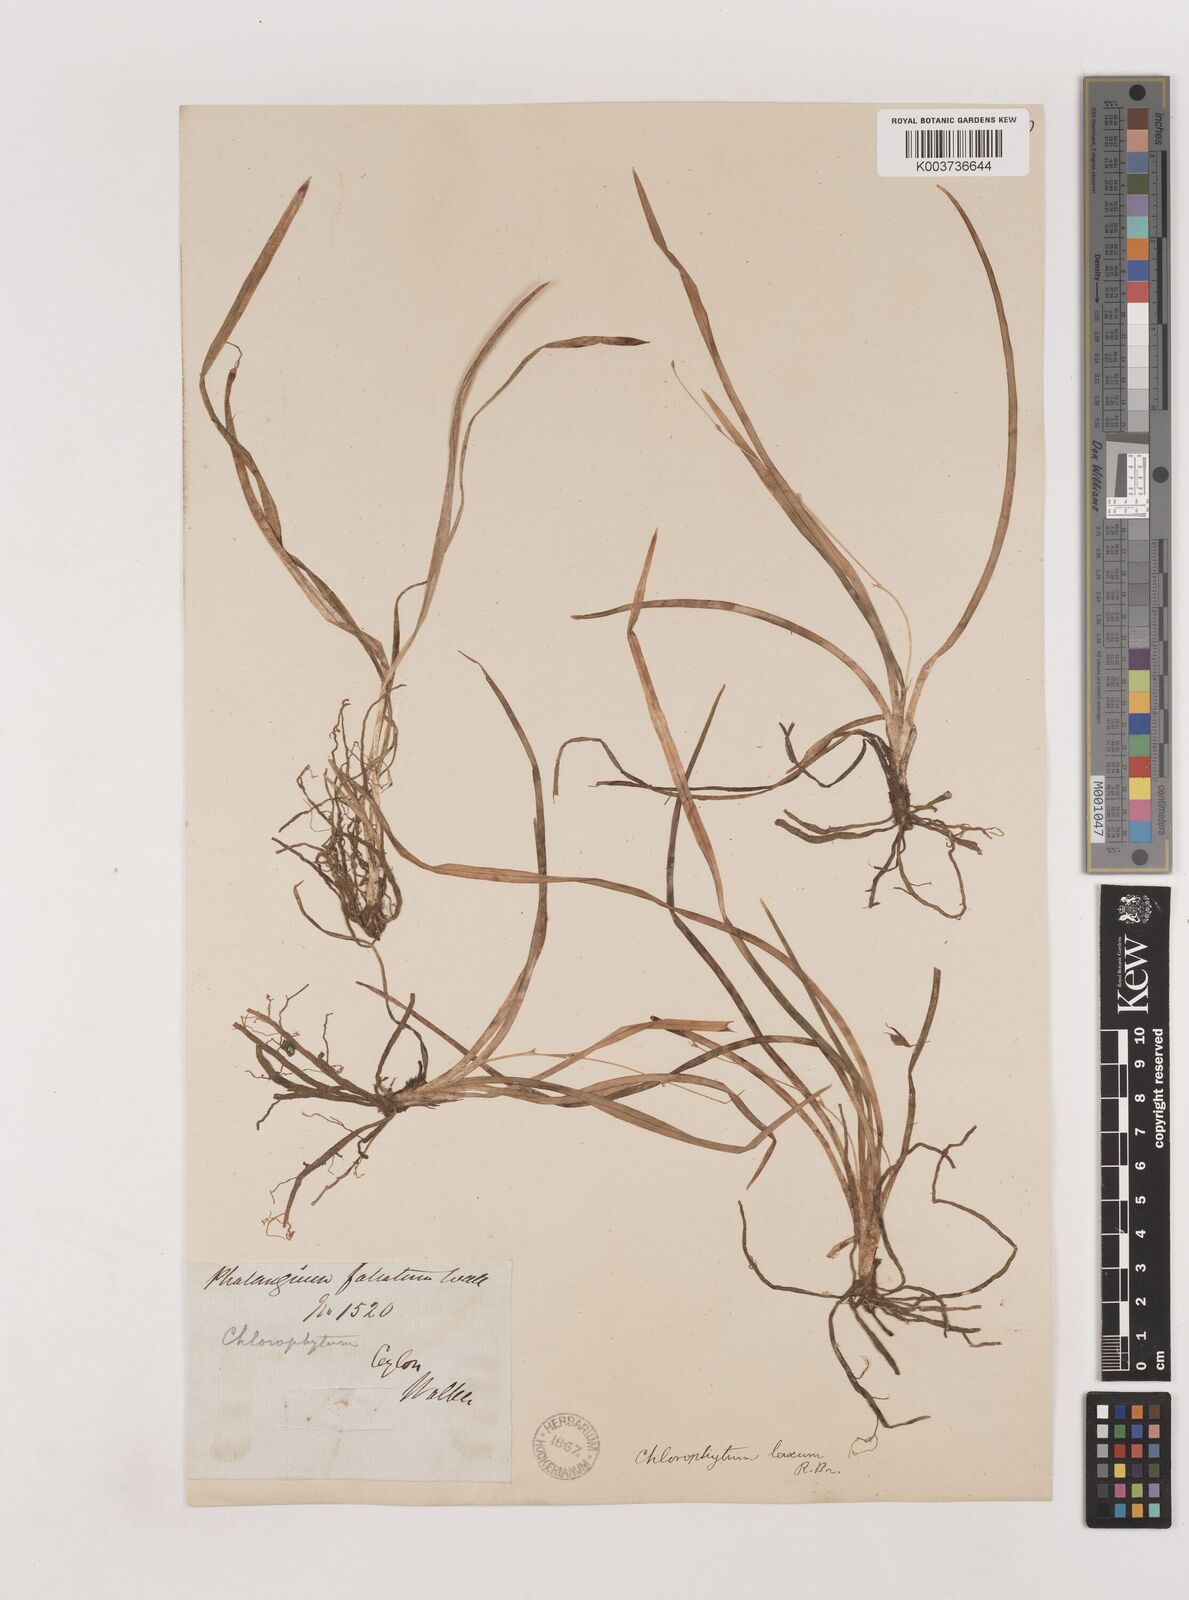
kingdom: Plantae
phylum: Tracheophyta
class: Liliopsida
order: Asparagales
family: Asparagaceae
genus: Chlorophytum
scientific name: Chlorophytum laxum
